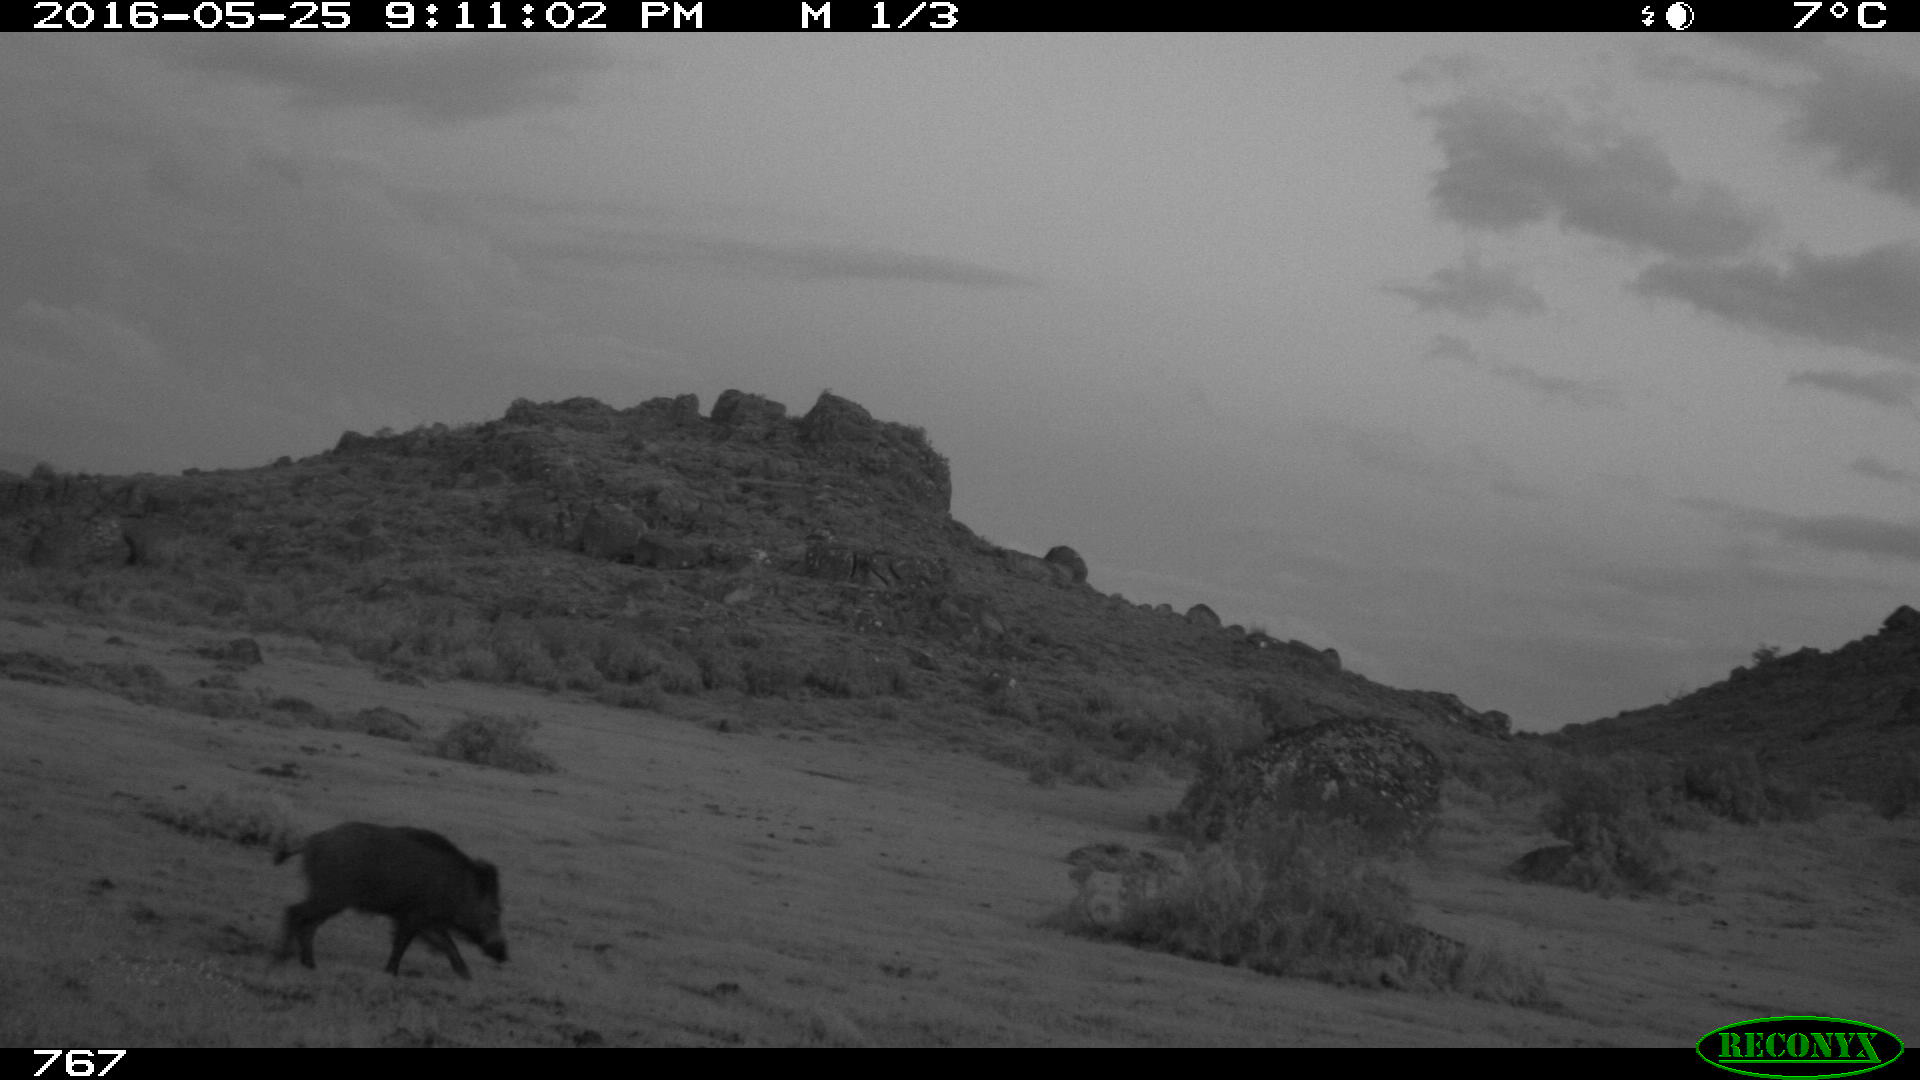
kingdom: Animalia
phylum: Chordata
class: Mammalia
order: Artiodactyla
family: Suidae
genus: Sus
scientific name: Sus scrofa
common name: Wild boar
